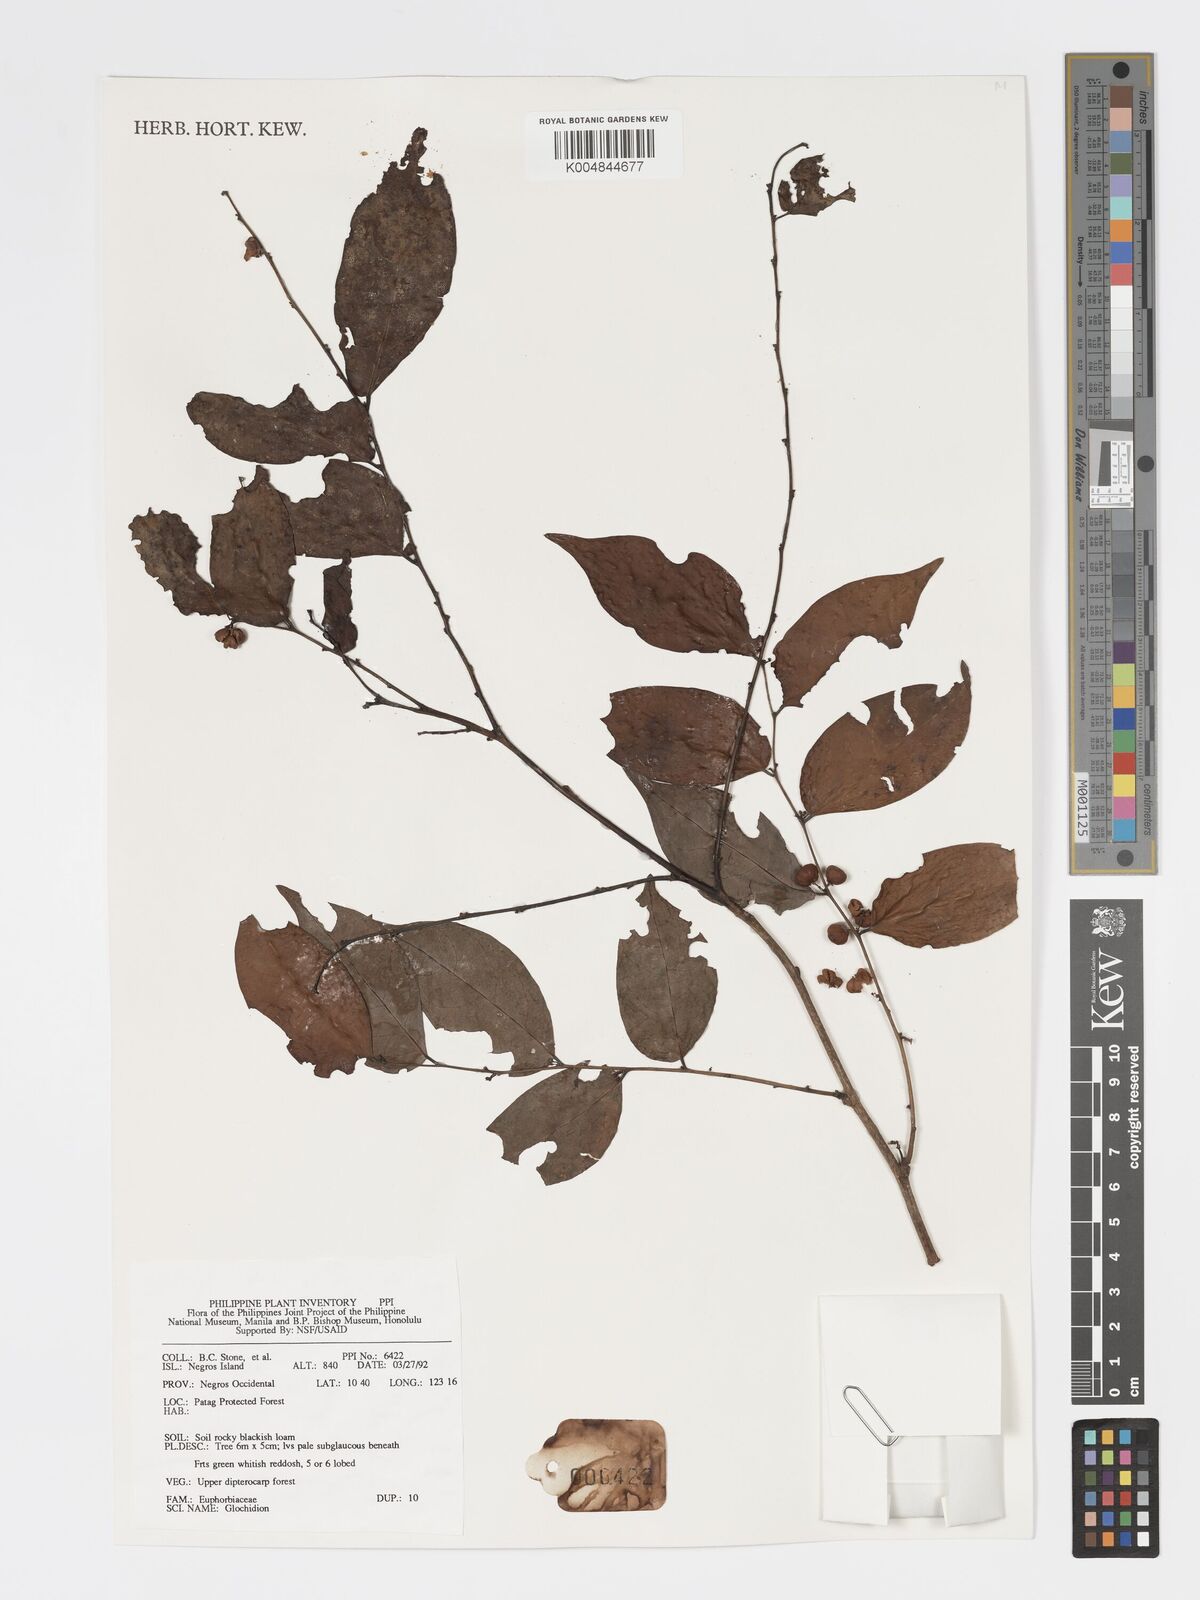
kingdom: Plantae
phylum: Tracheophyta
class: Magnoliopsida
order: Malpighiales
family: Phyllanthaceae
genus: Glochidion
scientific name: Glochidion
